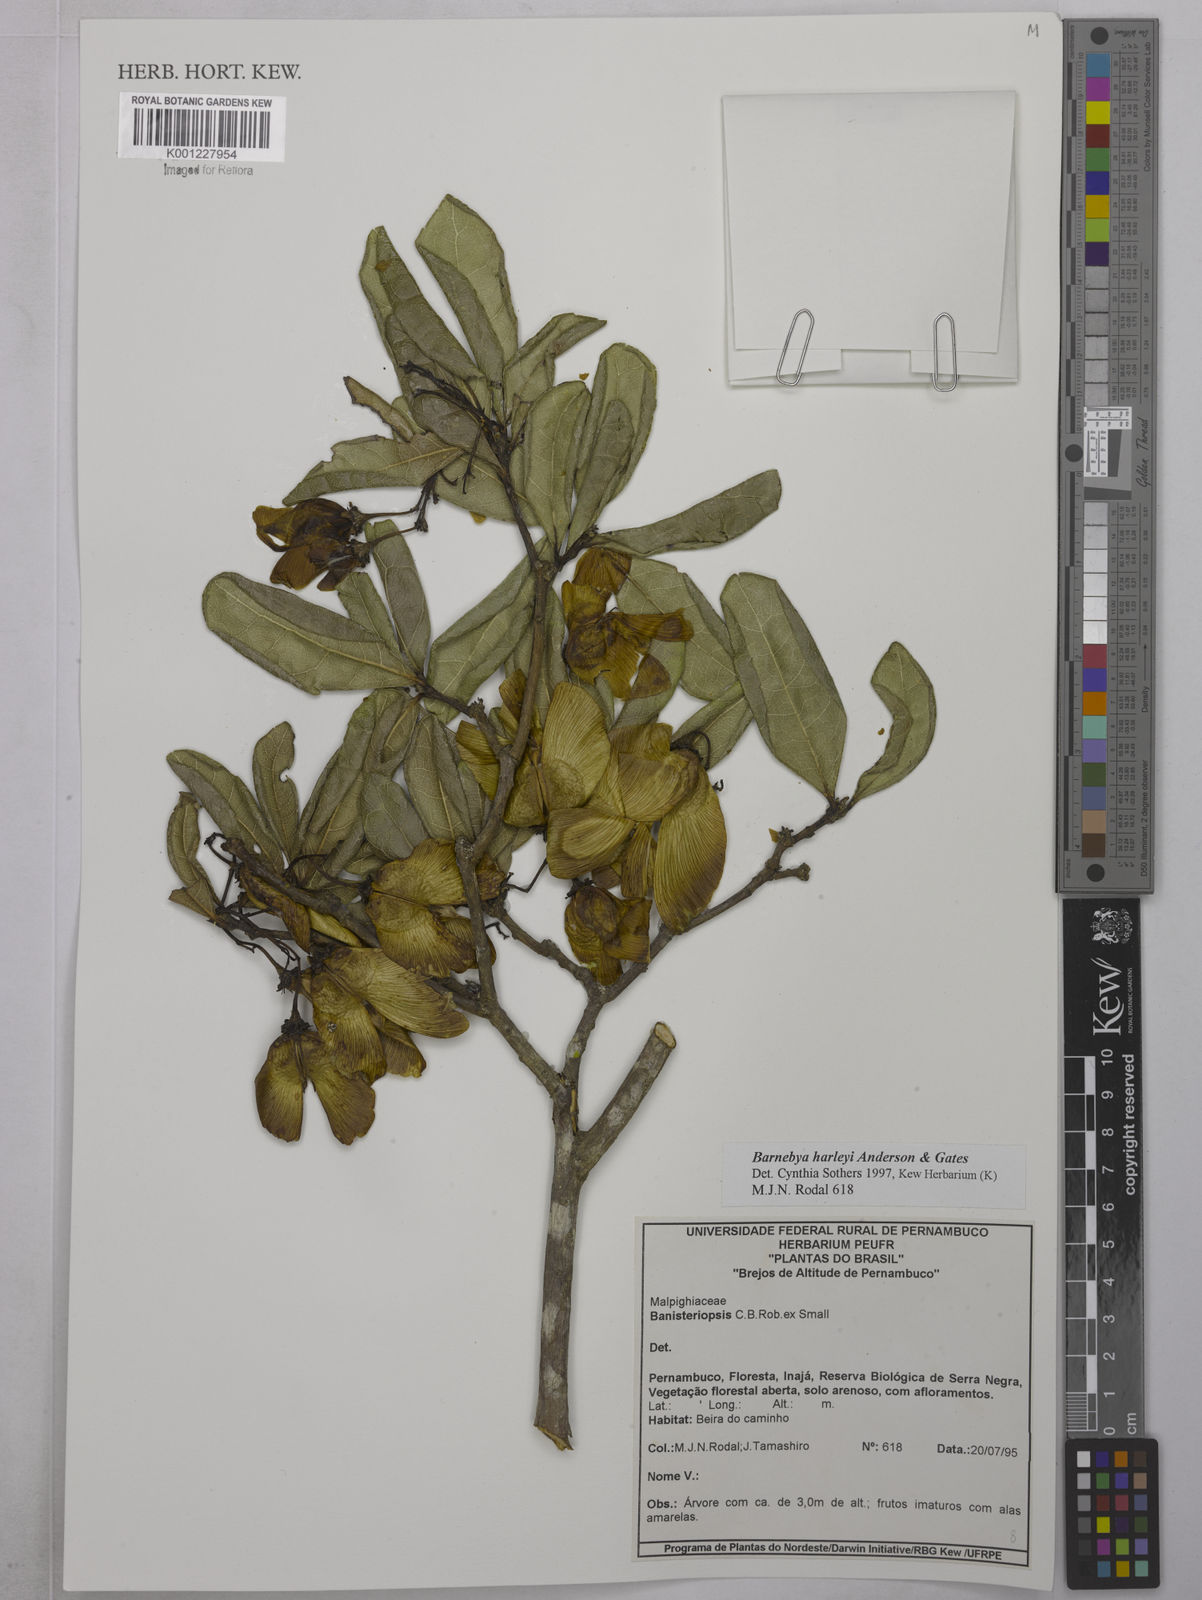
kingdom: Plantae
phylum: Tracheophyta
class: Magnoliopsida
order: Malpighiales
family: Malpighiaceae
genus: Barnebya
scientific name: Barnebya harleyi
